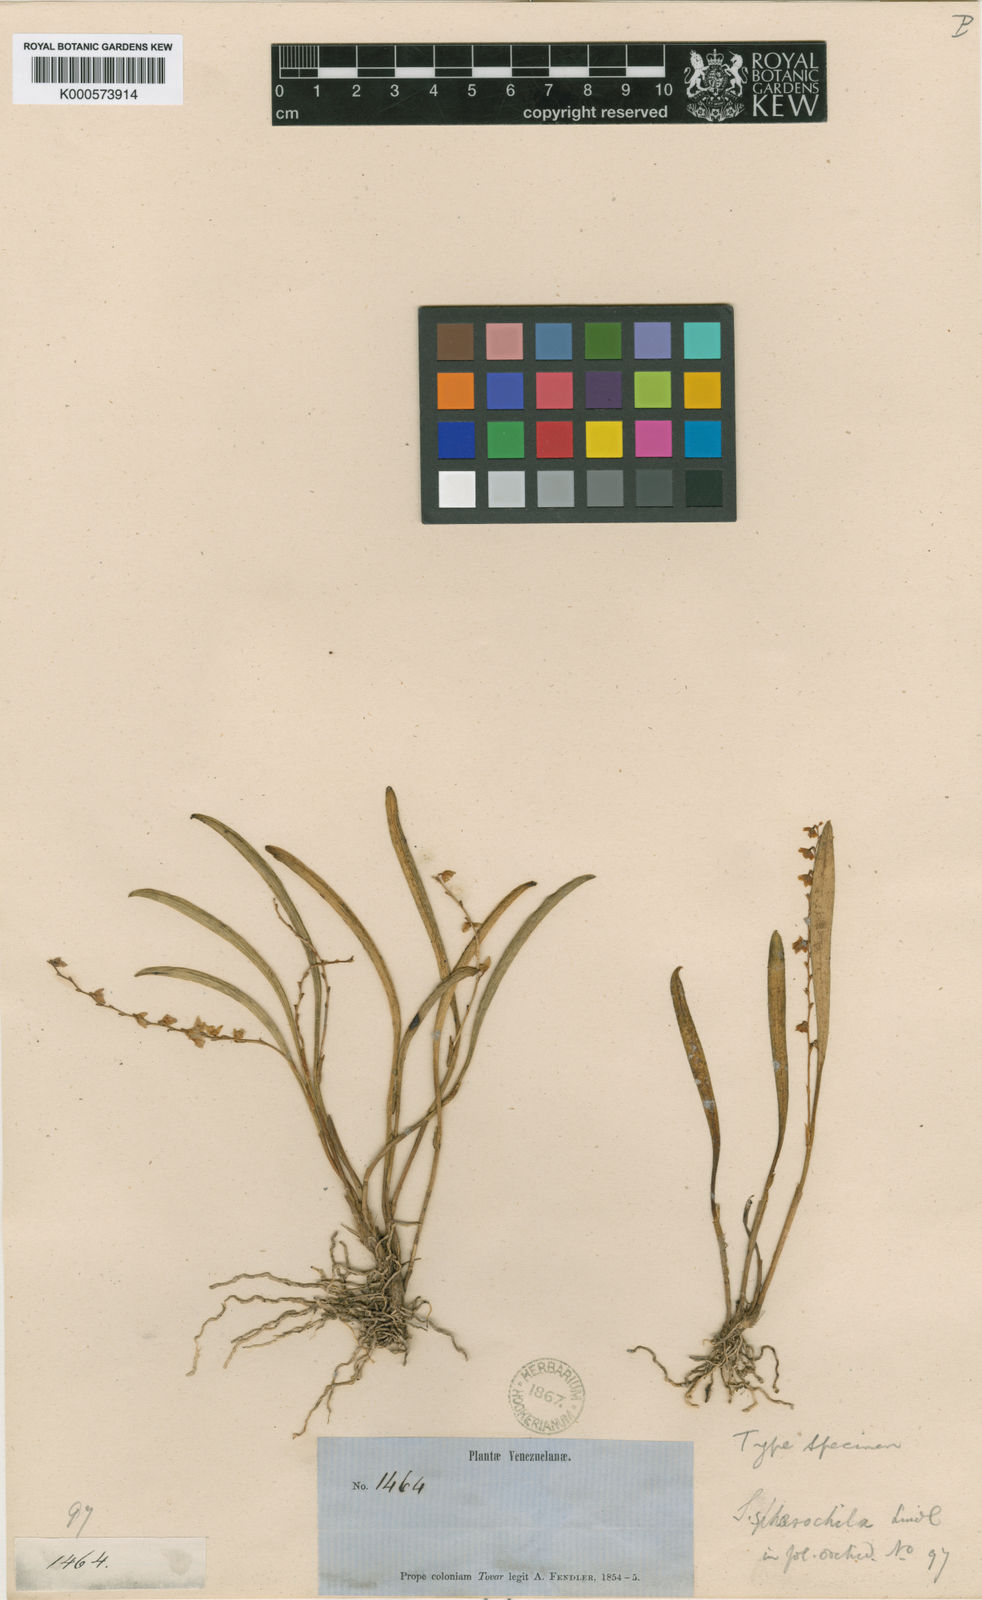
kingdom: Plantae
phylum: Tracheophyta
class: Liliopsida
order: Asparagales
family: Orchidaceae
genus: Stelis
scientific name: Stelis humilis
